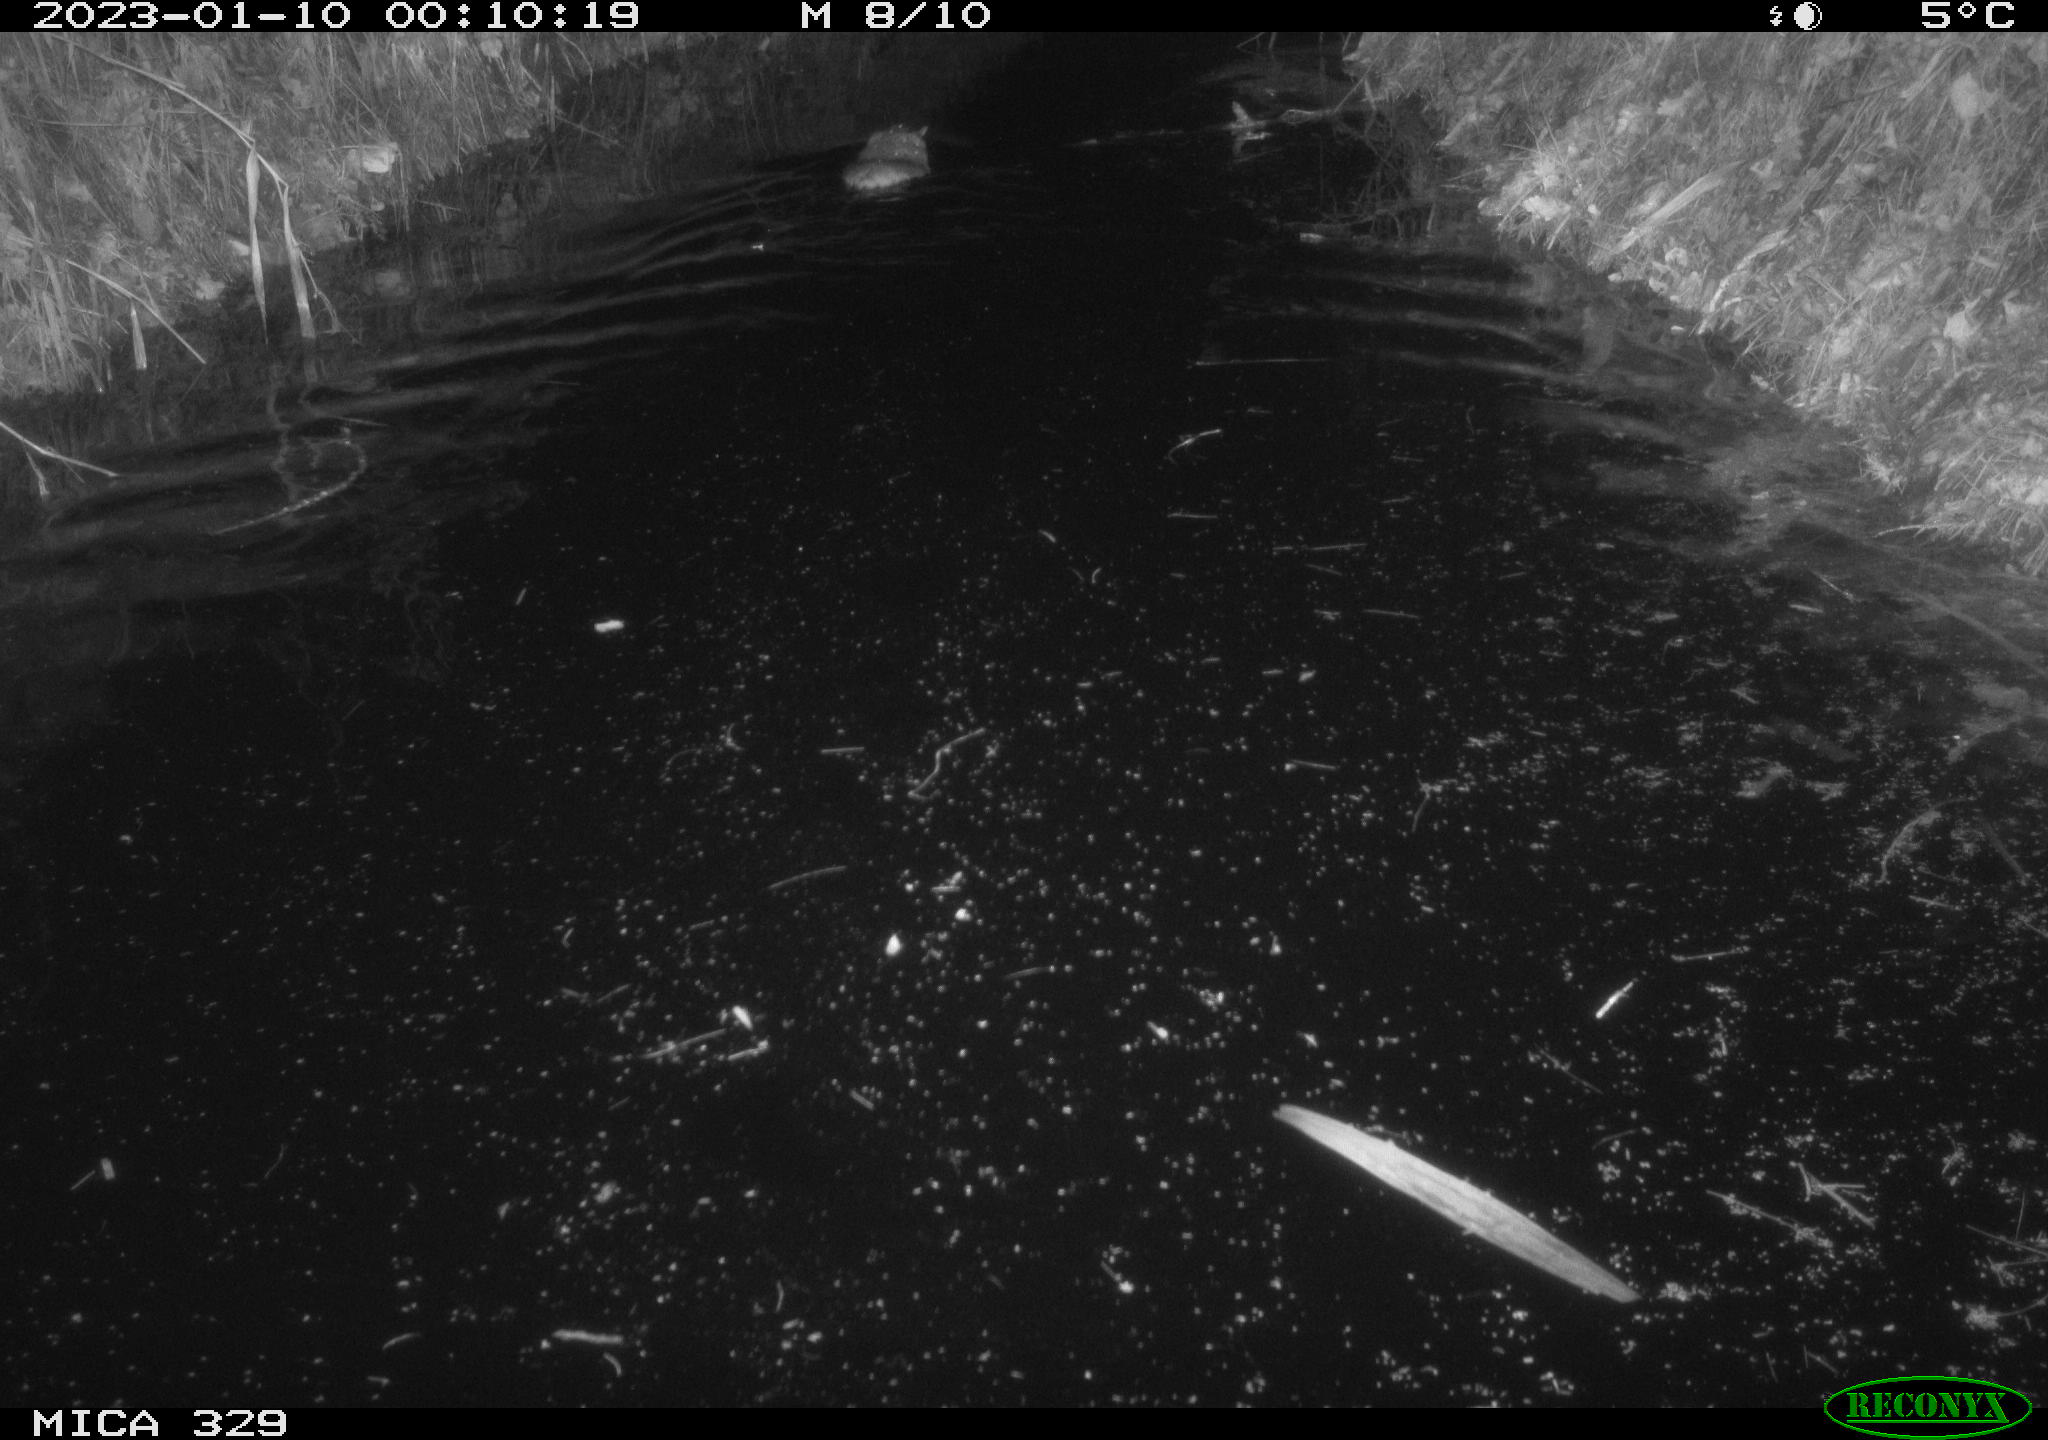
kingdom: Animalia
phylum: Chordata
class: Mammalia
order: Rodentia
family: Cricetidae
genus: Ondatra
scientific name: Ondatra zibethicus
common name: Muskrat
